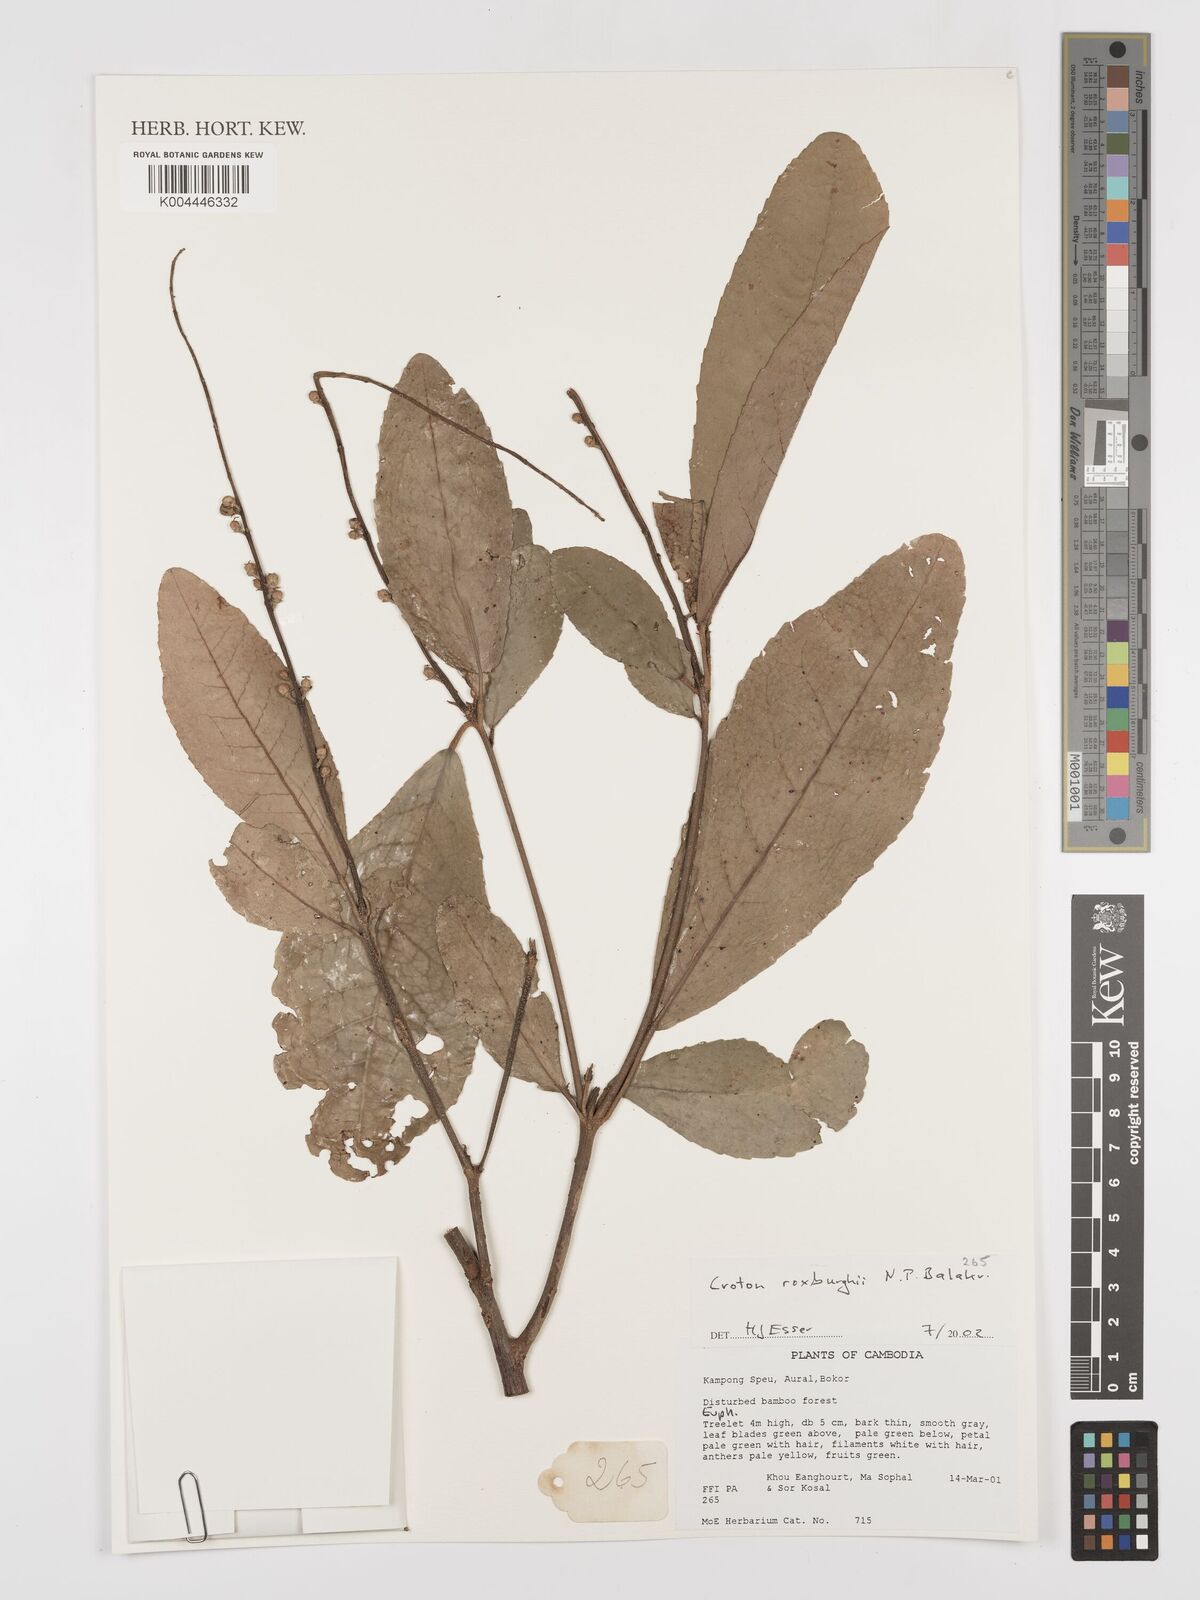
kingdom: Plantae
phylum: Tracheophyta
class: Magnoliopsida
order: Malpighiales
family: Euphorbiaceae
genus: Baliospermum
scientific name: Baliospermum solanifolium
